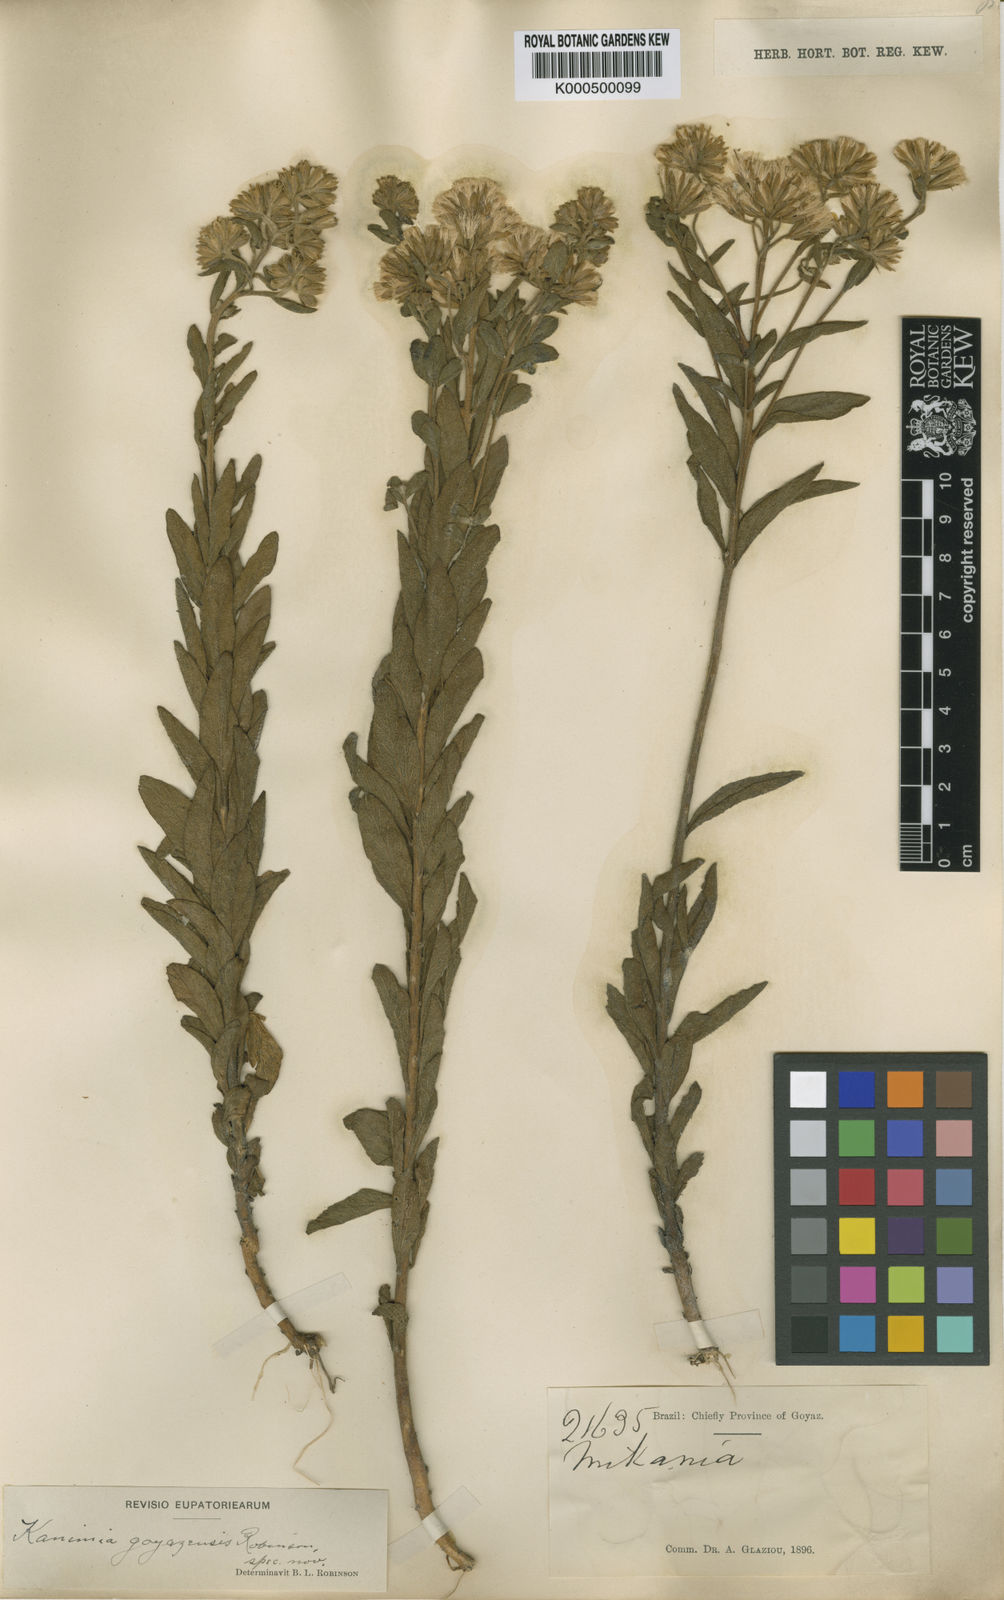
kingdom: Plantae
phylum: Tracheophyta
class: Magnoliopsida
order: Asterales
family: Asteraceae
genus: Mikania
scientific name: Mikania goyazensis
